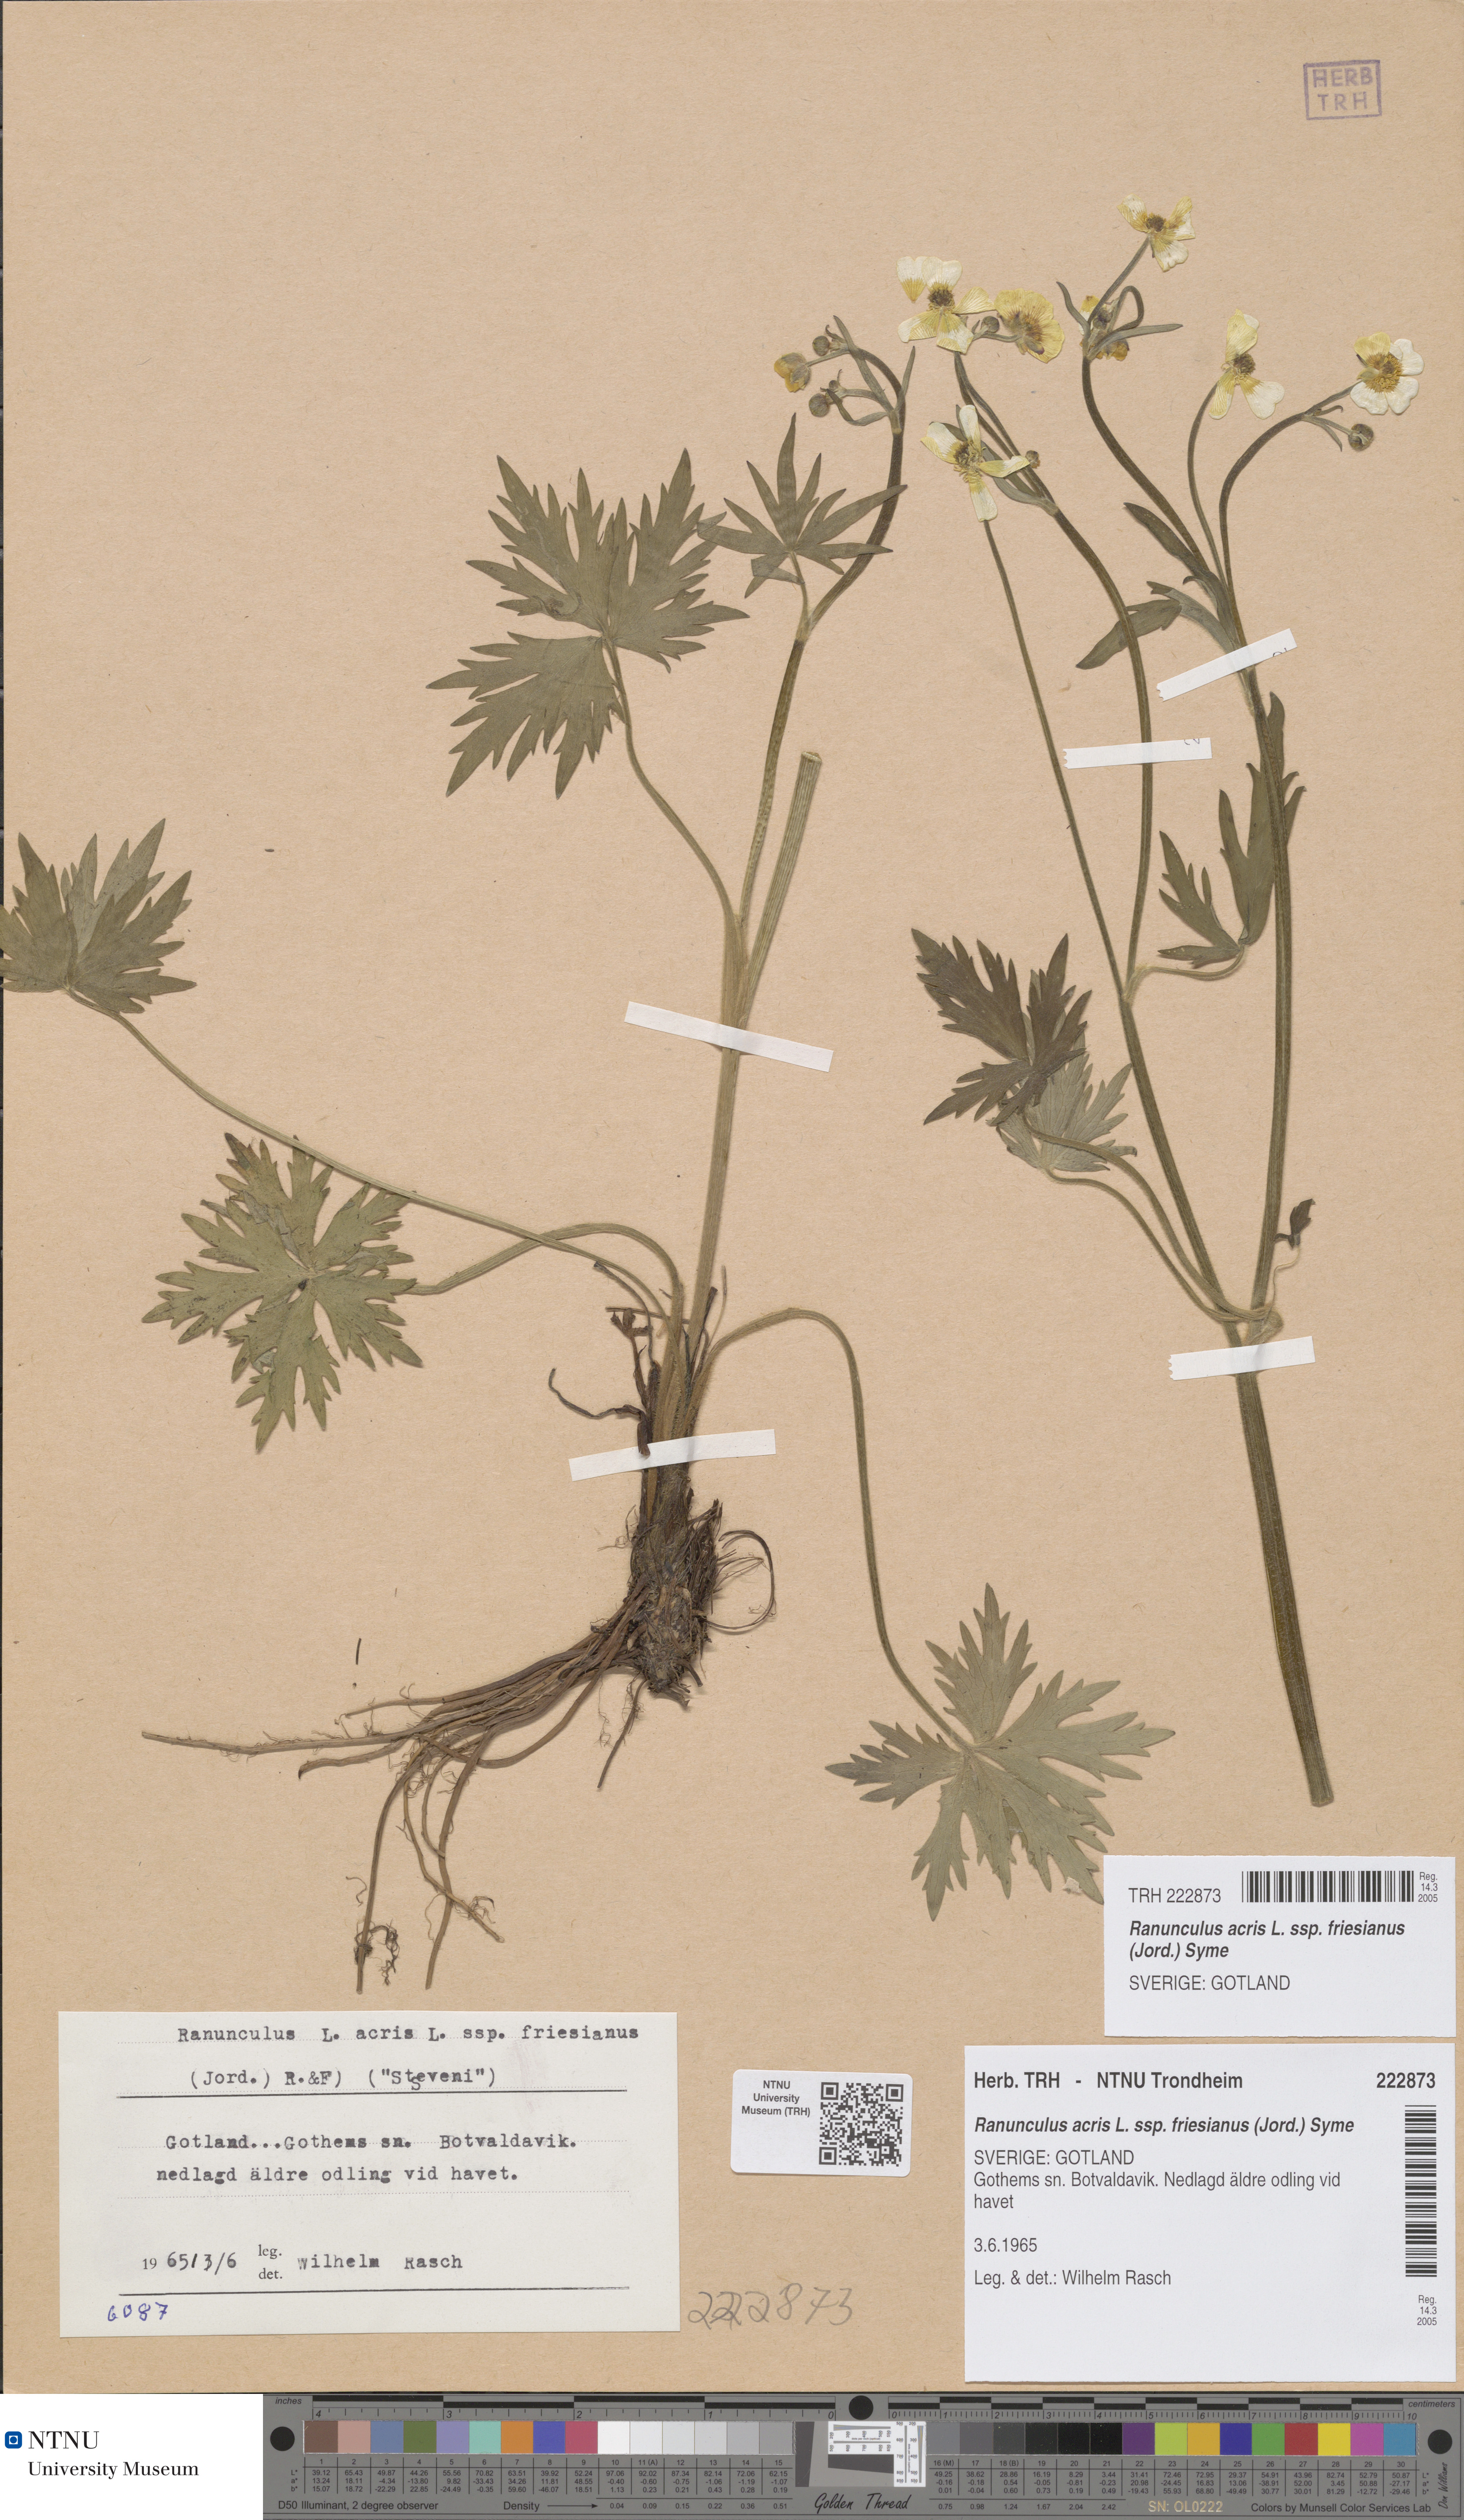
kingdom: Plantae
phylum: Tracheophyta
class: Magnoliopsida
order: Ranunculales
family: Ranunculaceae
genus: Ranunculus
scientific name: Ranunculus acris
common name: Meadow buttercup
